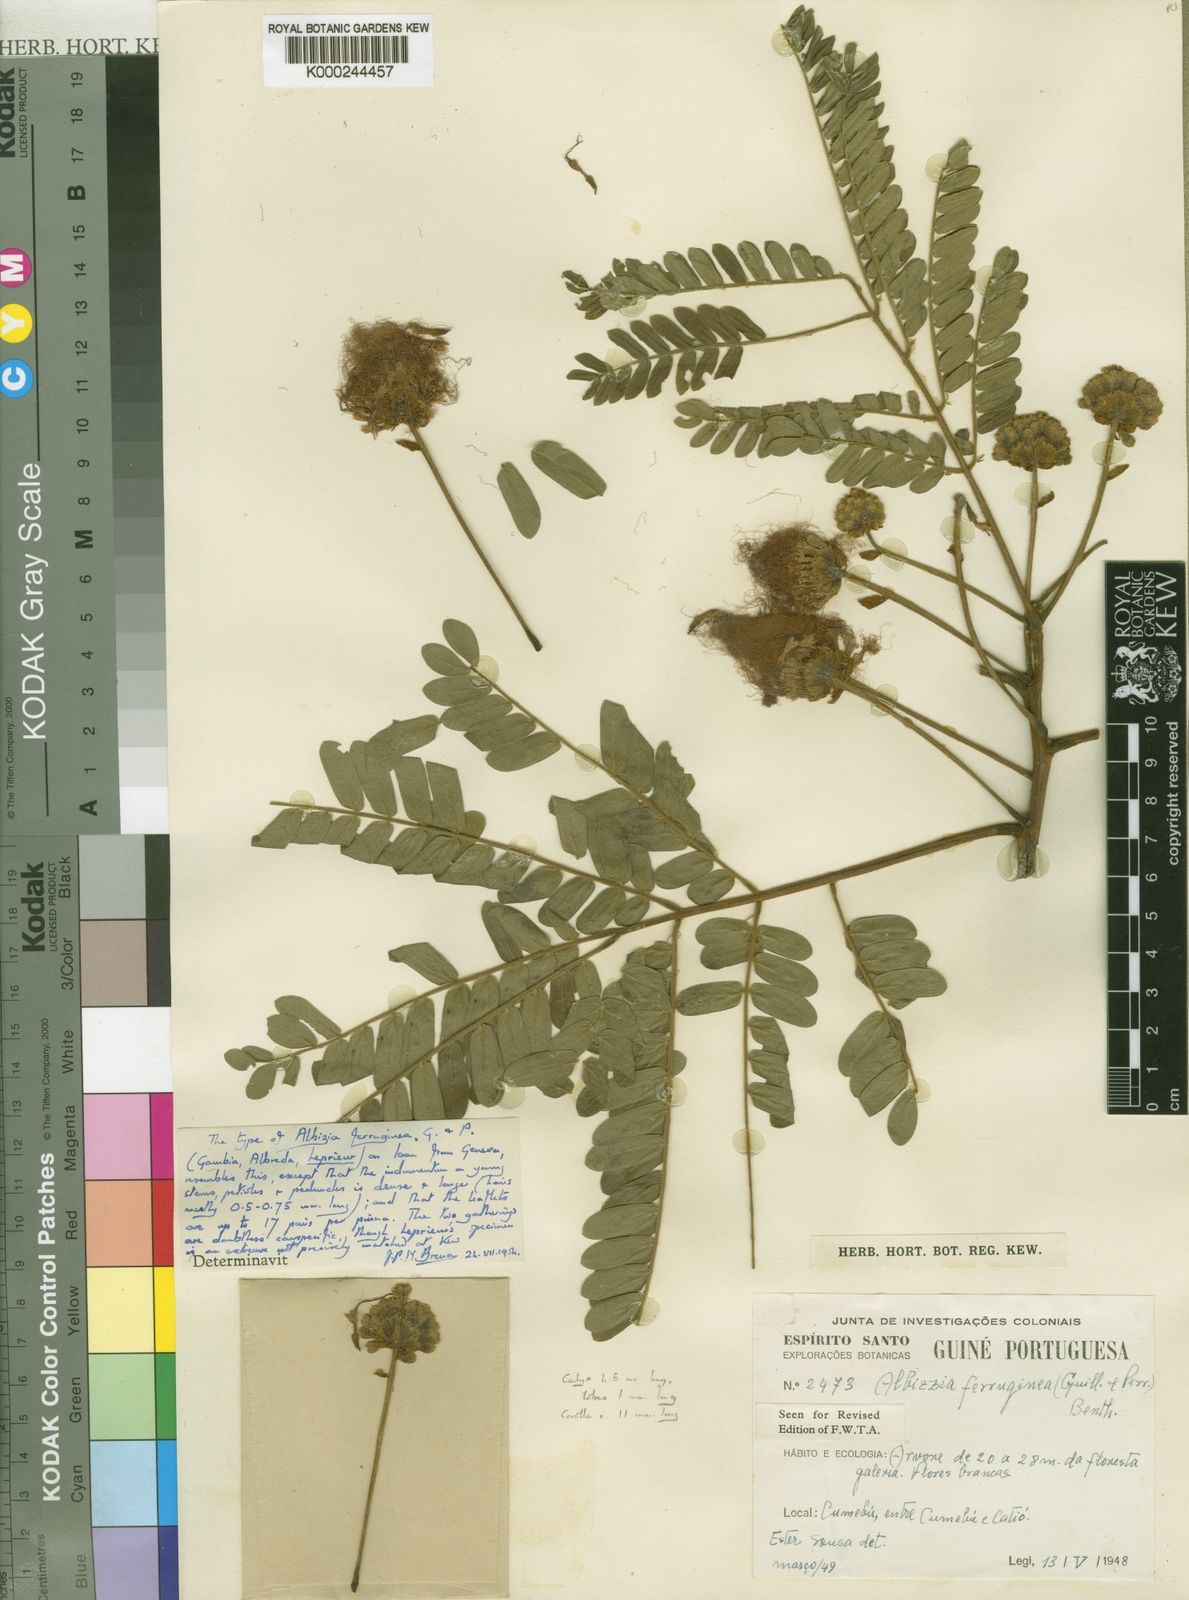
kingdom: Plantae
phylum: Tracheophyta
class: Magnoliopsida
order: Fabales
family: Fabaceae
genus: Albizia
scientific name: Albizia ferruginea
